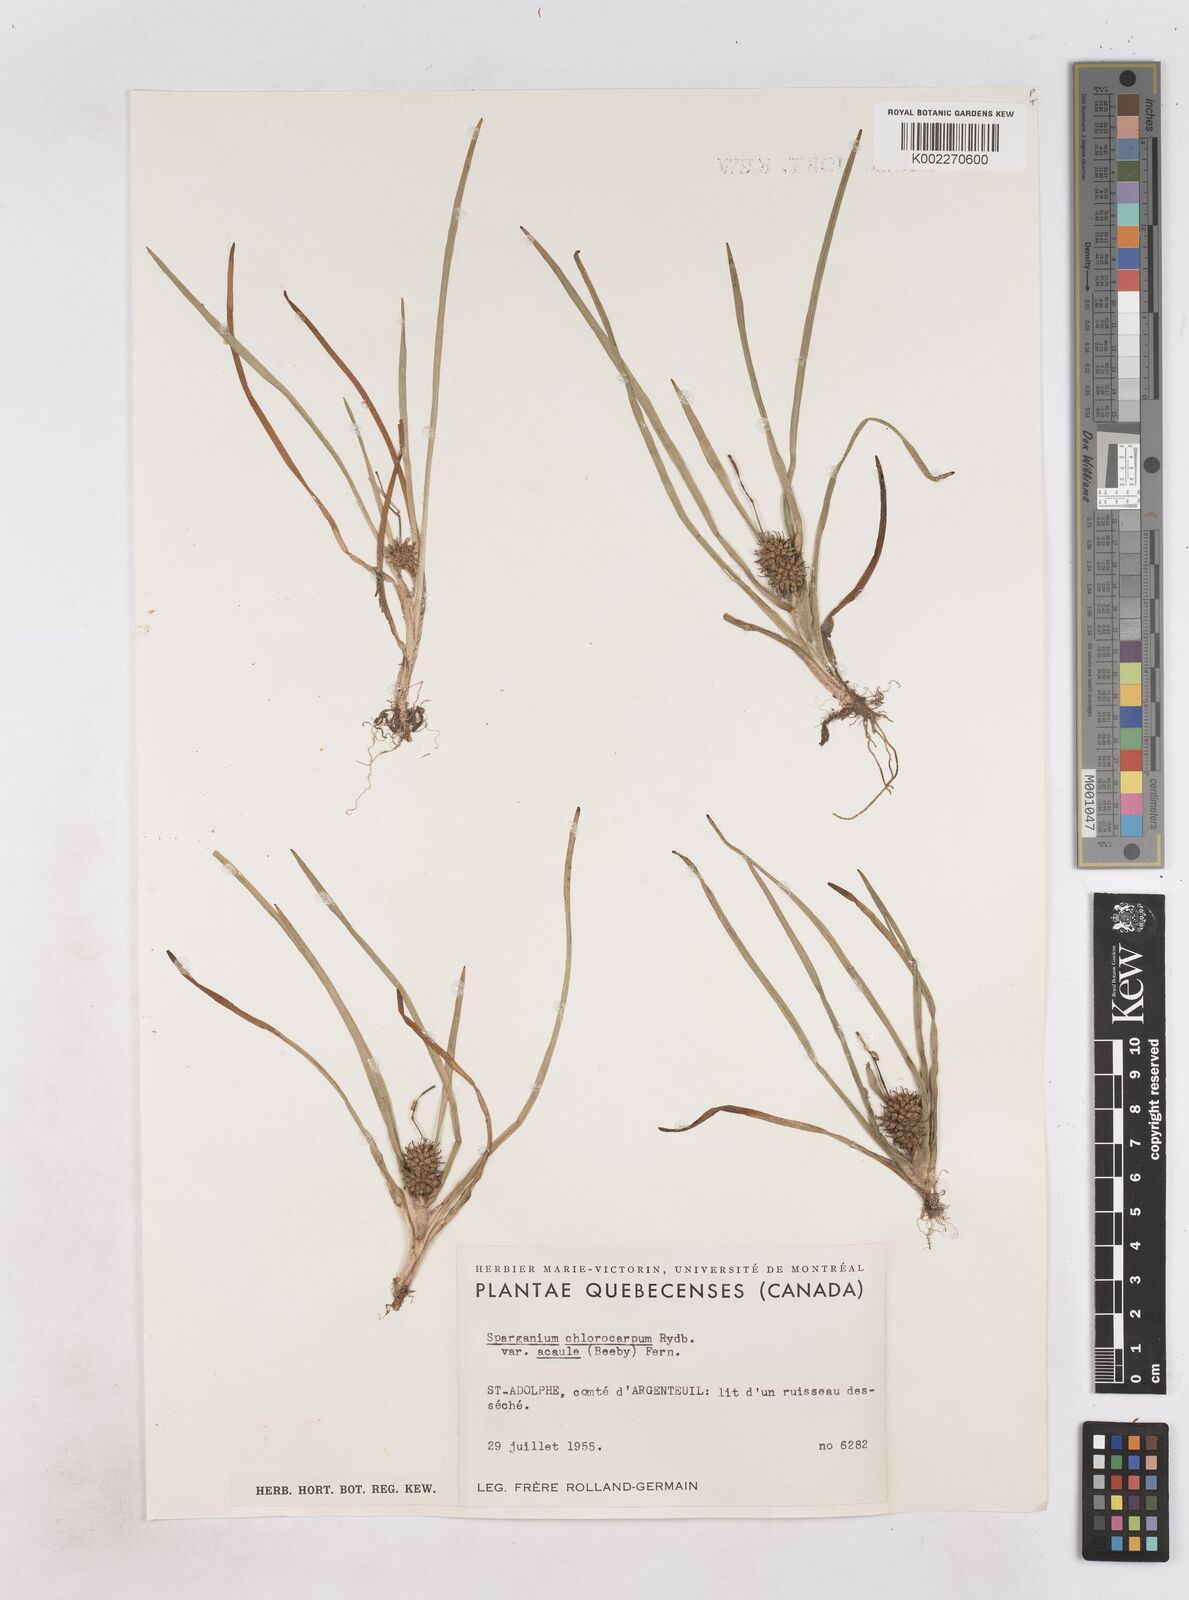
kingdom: Plantae
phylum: Tracheophyta
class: Liliopsida
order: Poales
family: Typhaceae
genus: Sparganium
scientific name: Sparganium emersum
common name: Unbranched bur-reed
